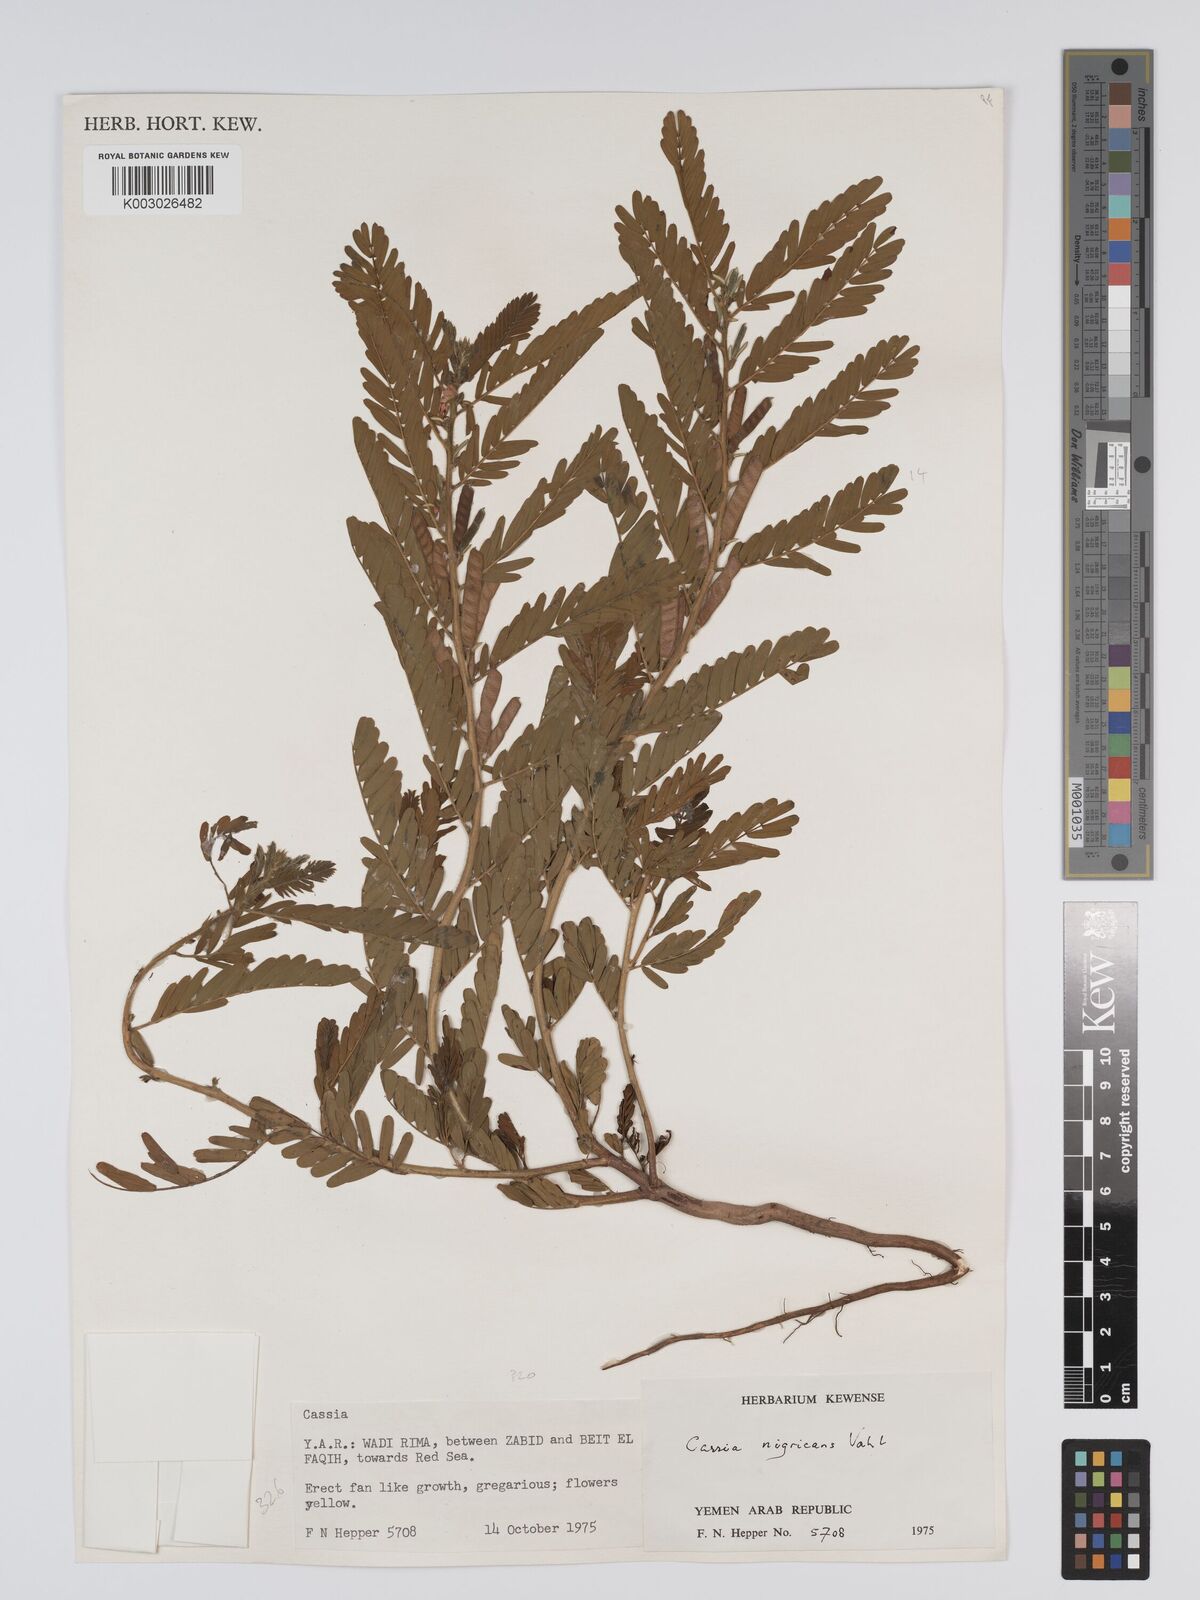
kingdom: Plantae
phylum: Tracheophyta
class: Magnoliopsida
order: Fabales
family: Fabaceae
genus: Chamaecrista
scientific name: Chamaecrista nigricans
